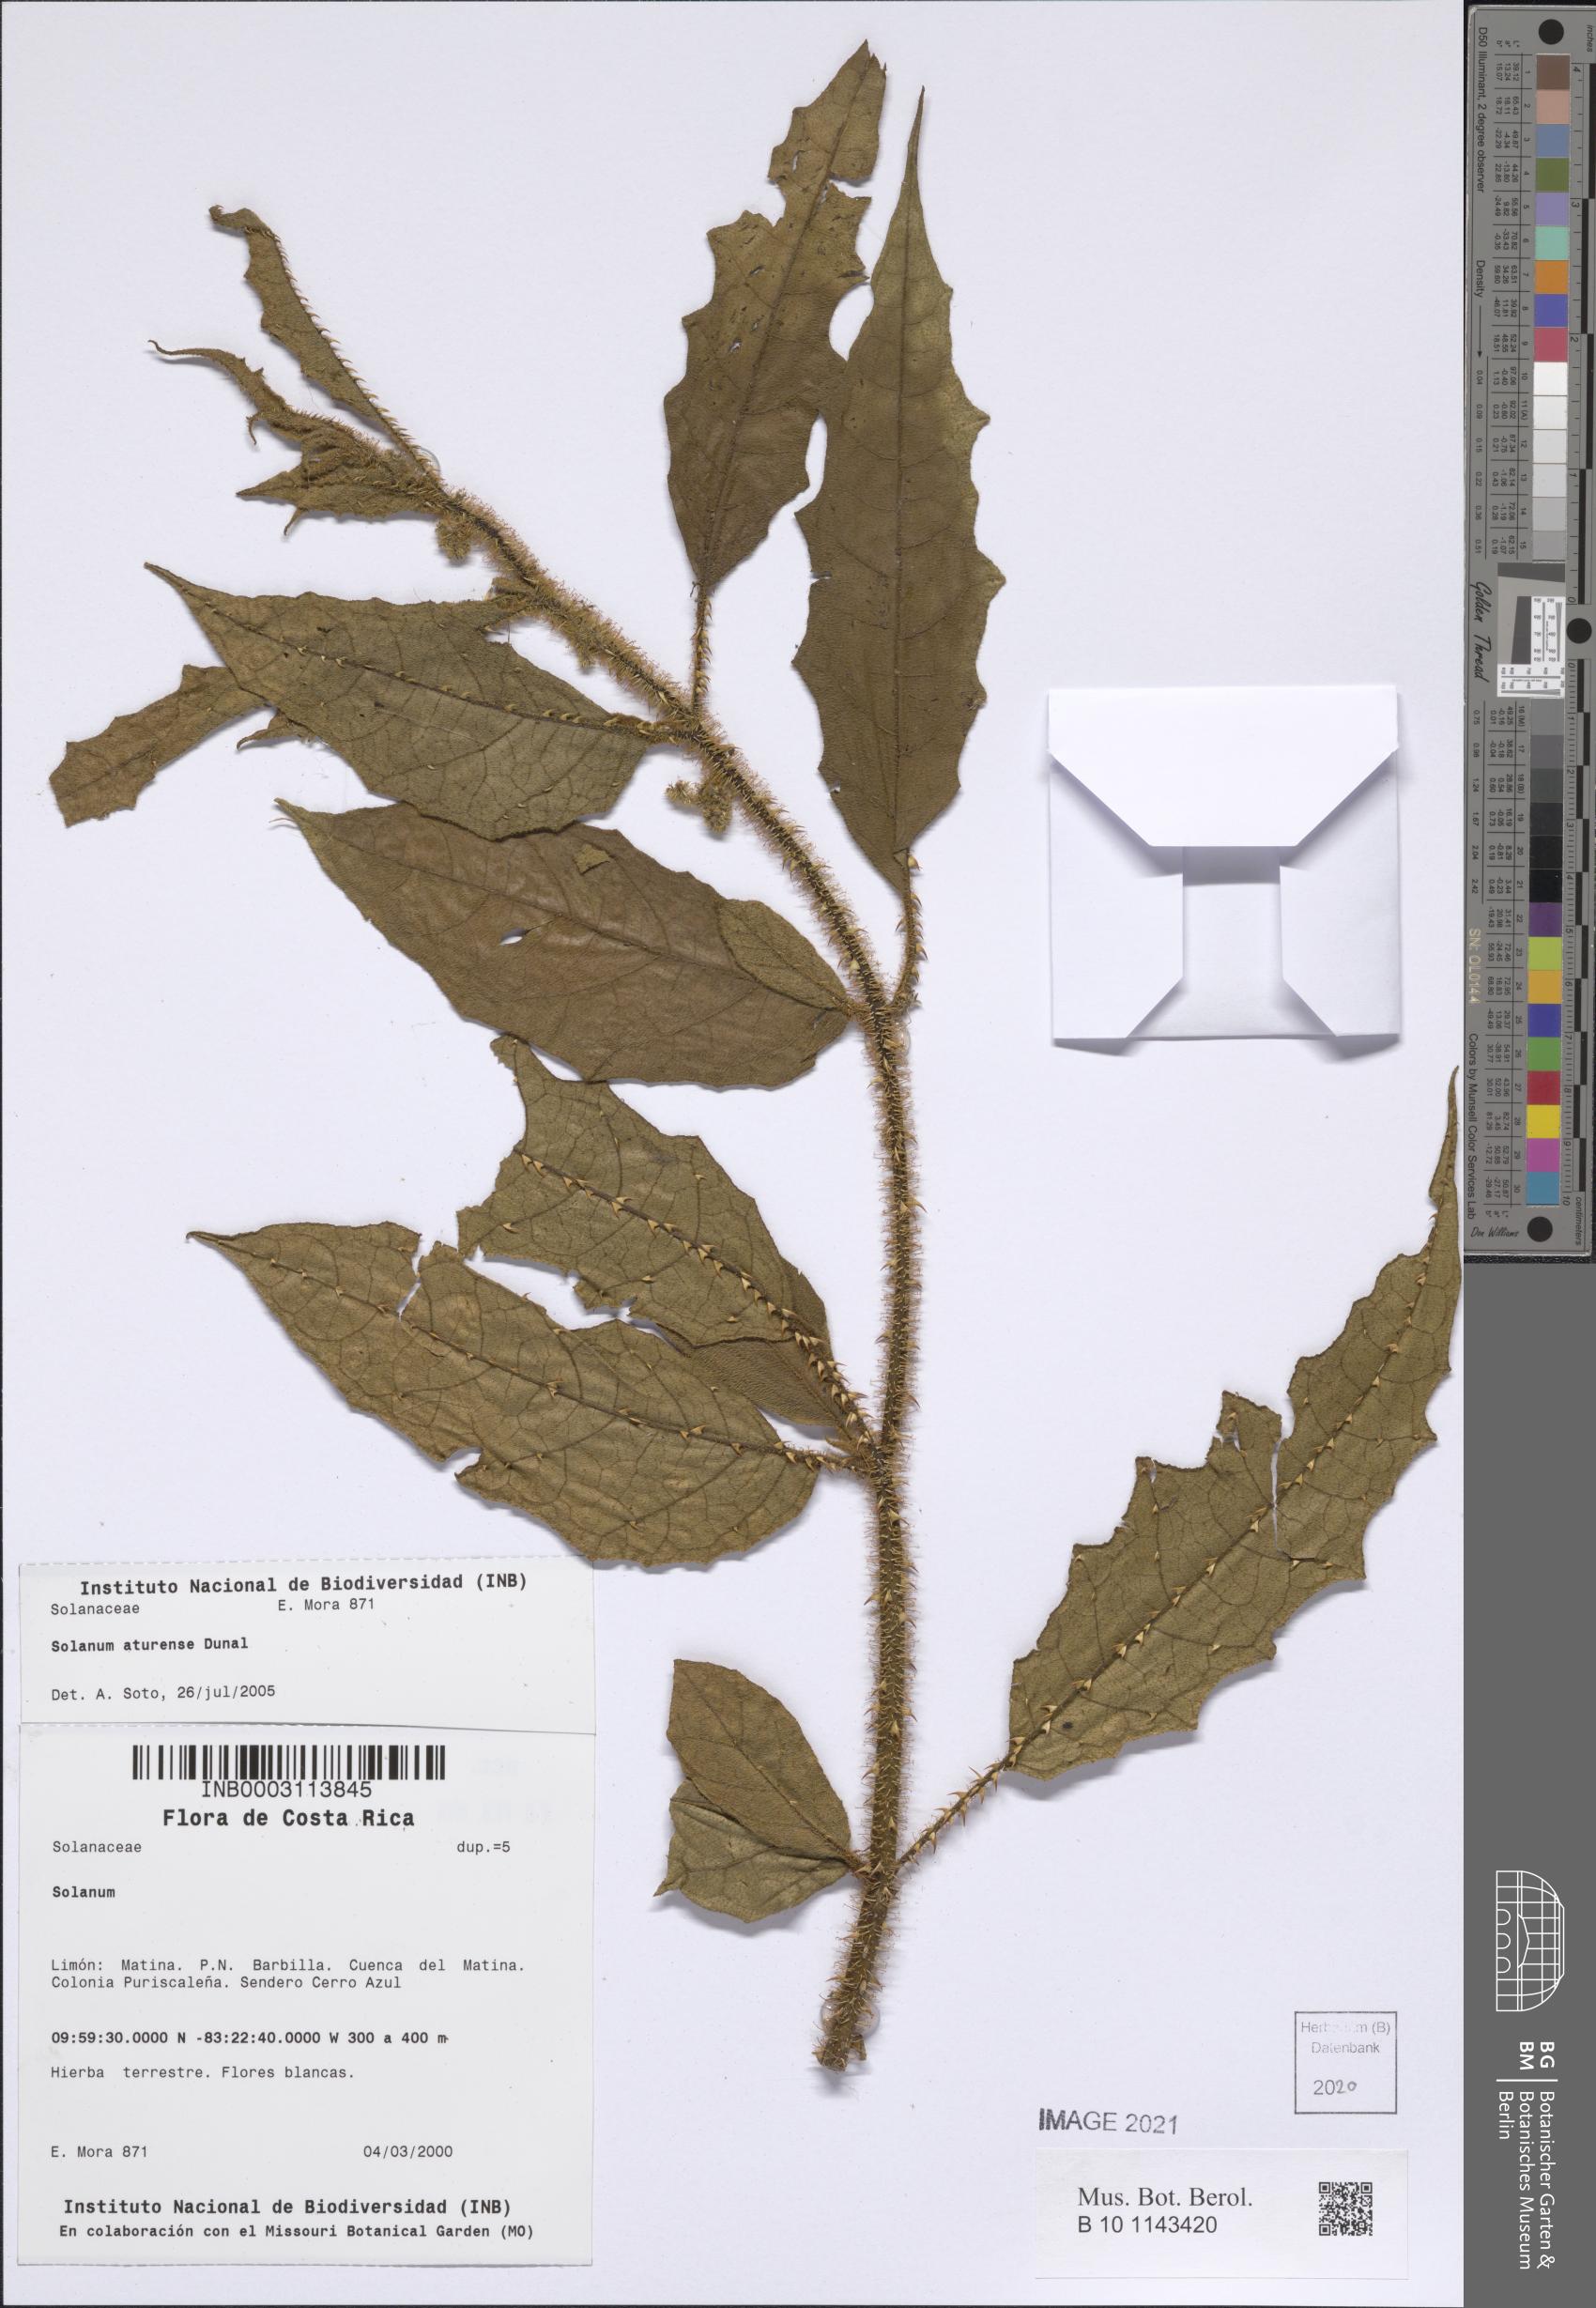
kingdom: Plantae
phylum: Tracheophyta
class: Magnoliopsida
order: Solanales
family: Solanaceae
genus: Solanum
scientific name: Solanum aturense
